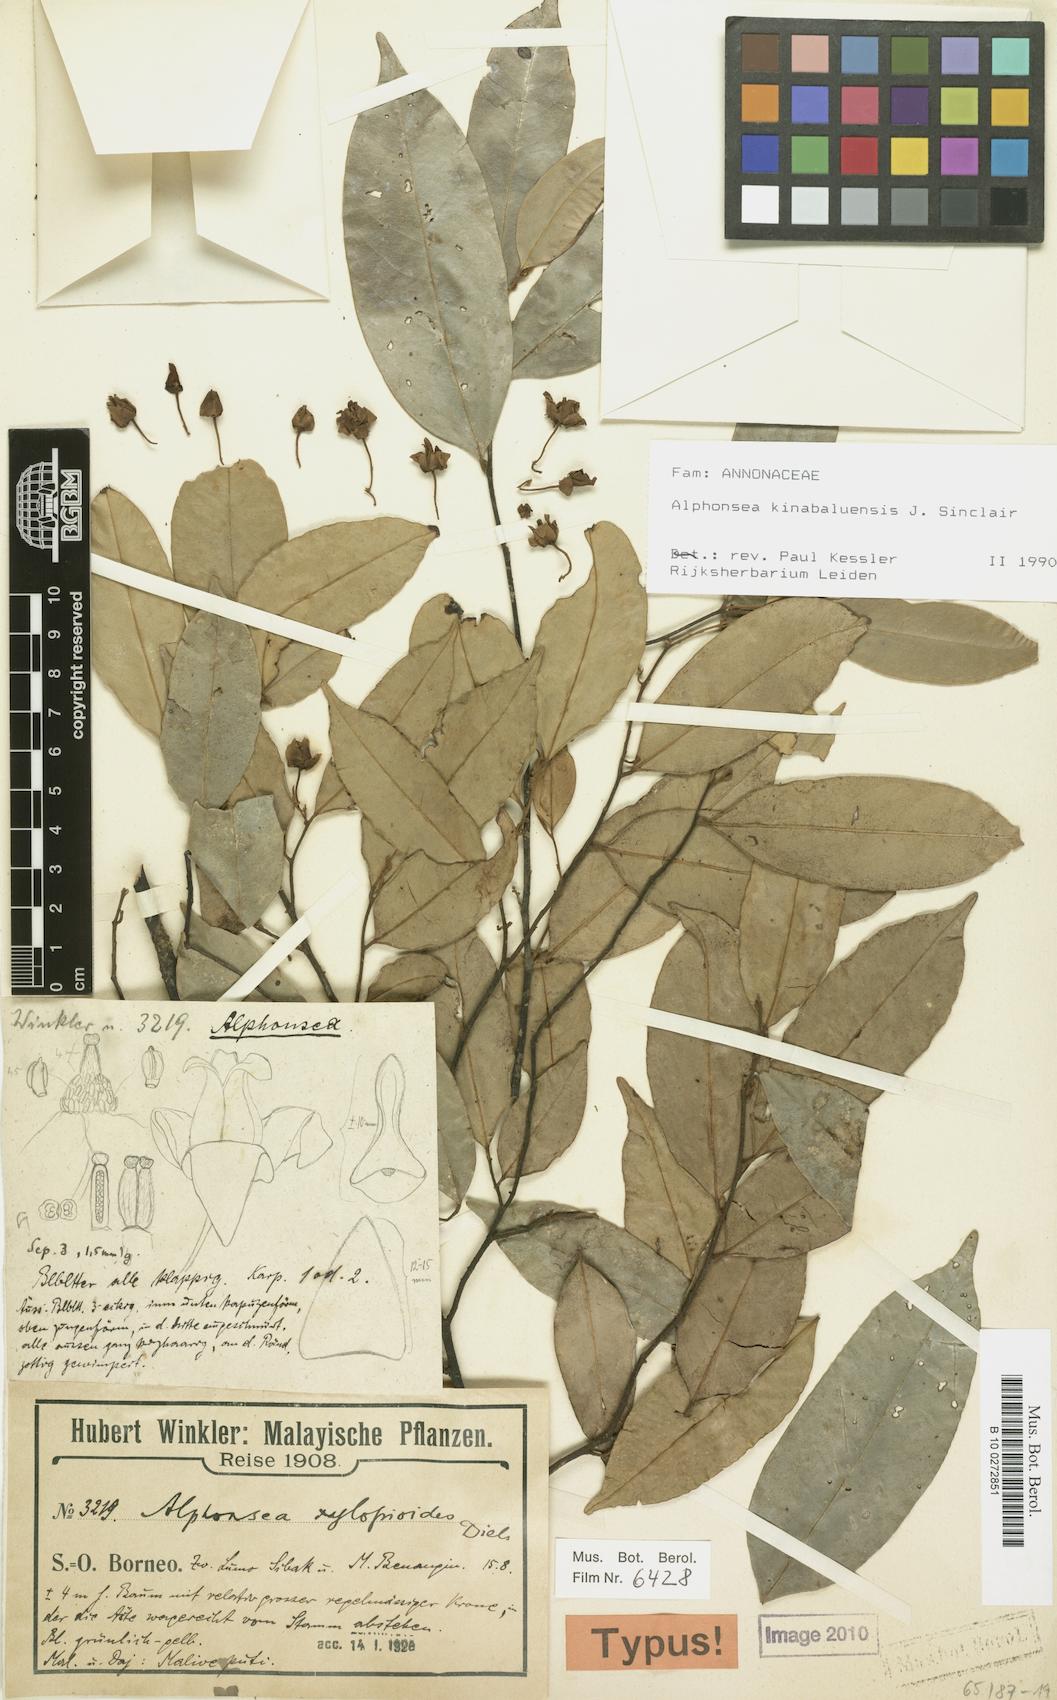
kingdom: Plantae
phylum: Tracheophyta
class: Magnoliopsida
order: Magnoliales
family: Annonaceae
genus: Alphonsea
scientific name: Alphonsea kinabaluensis
